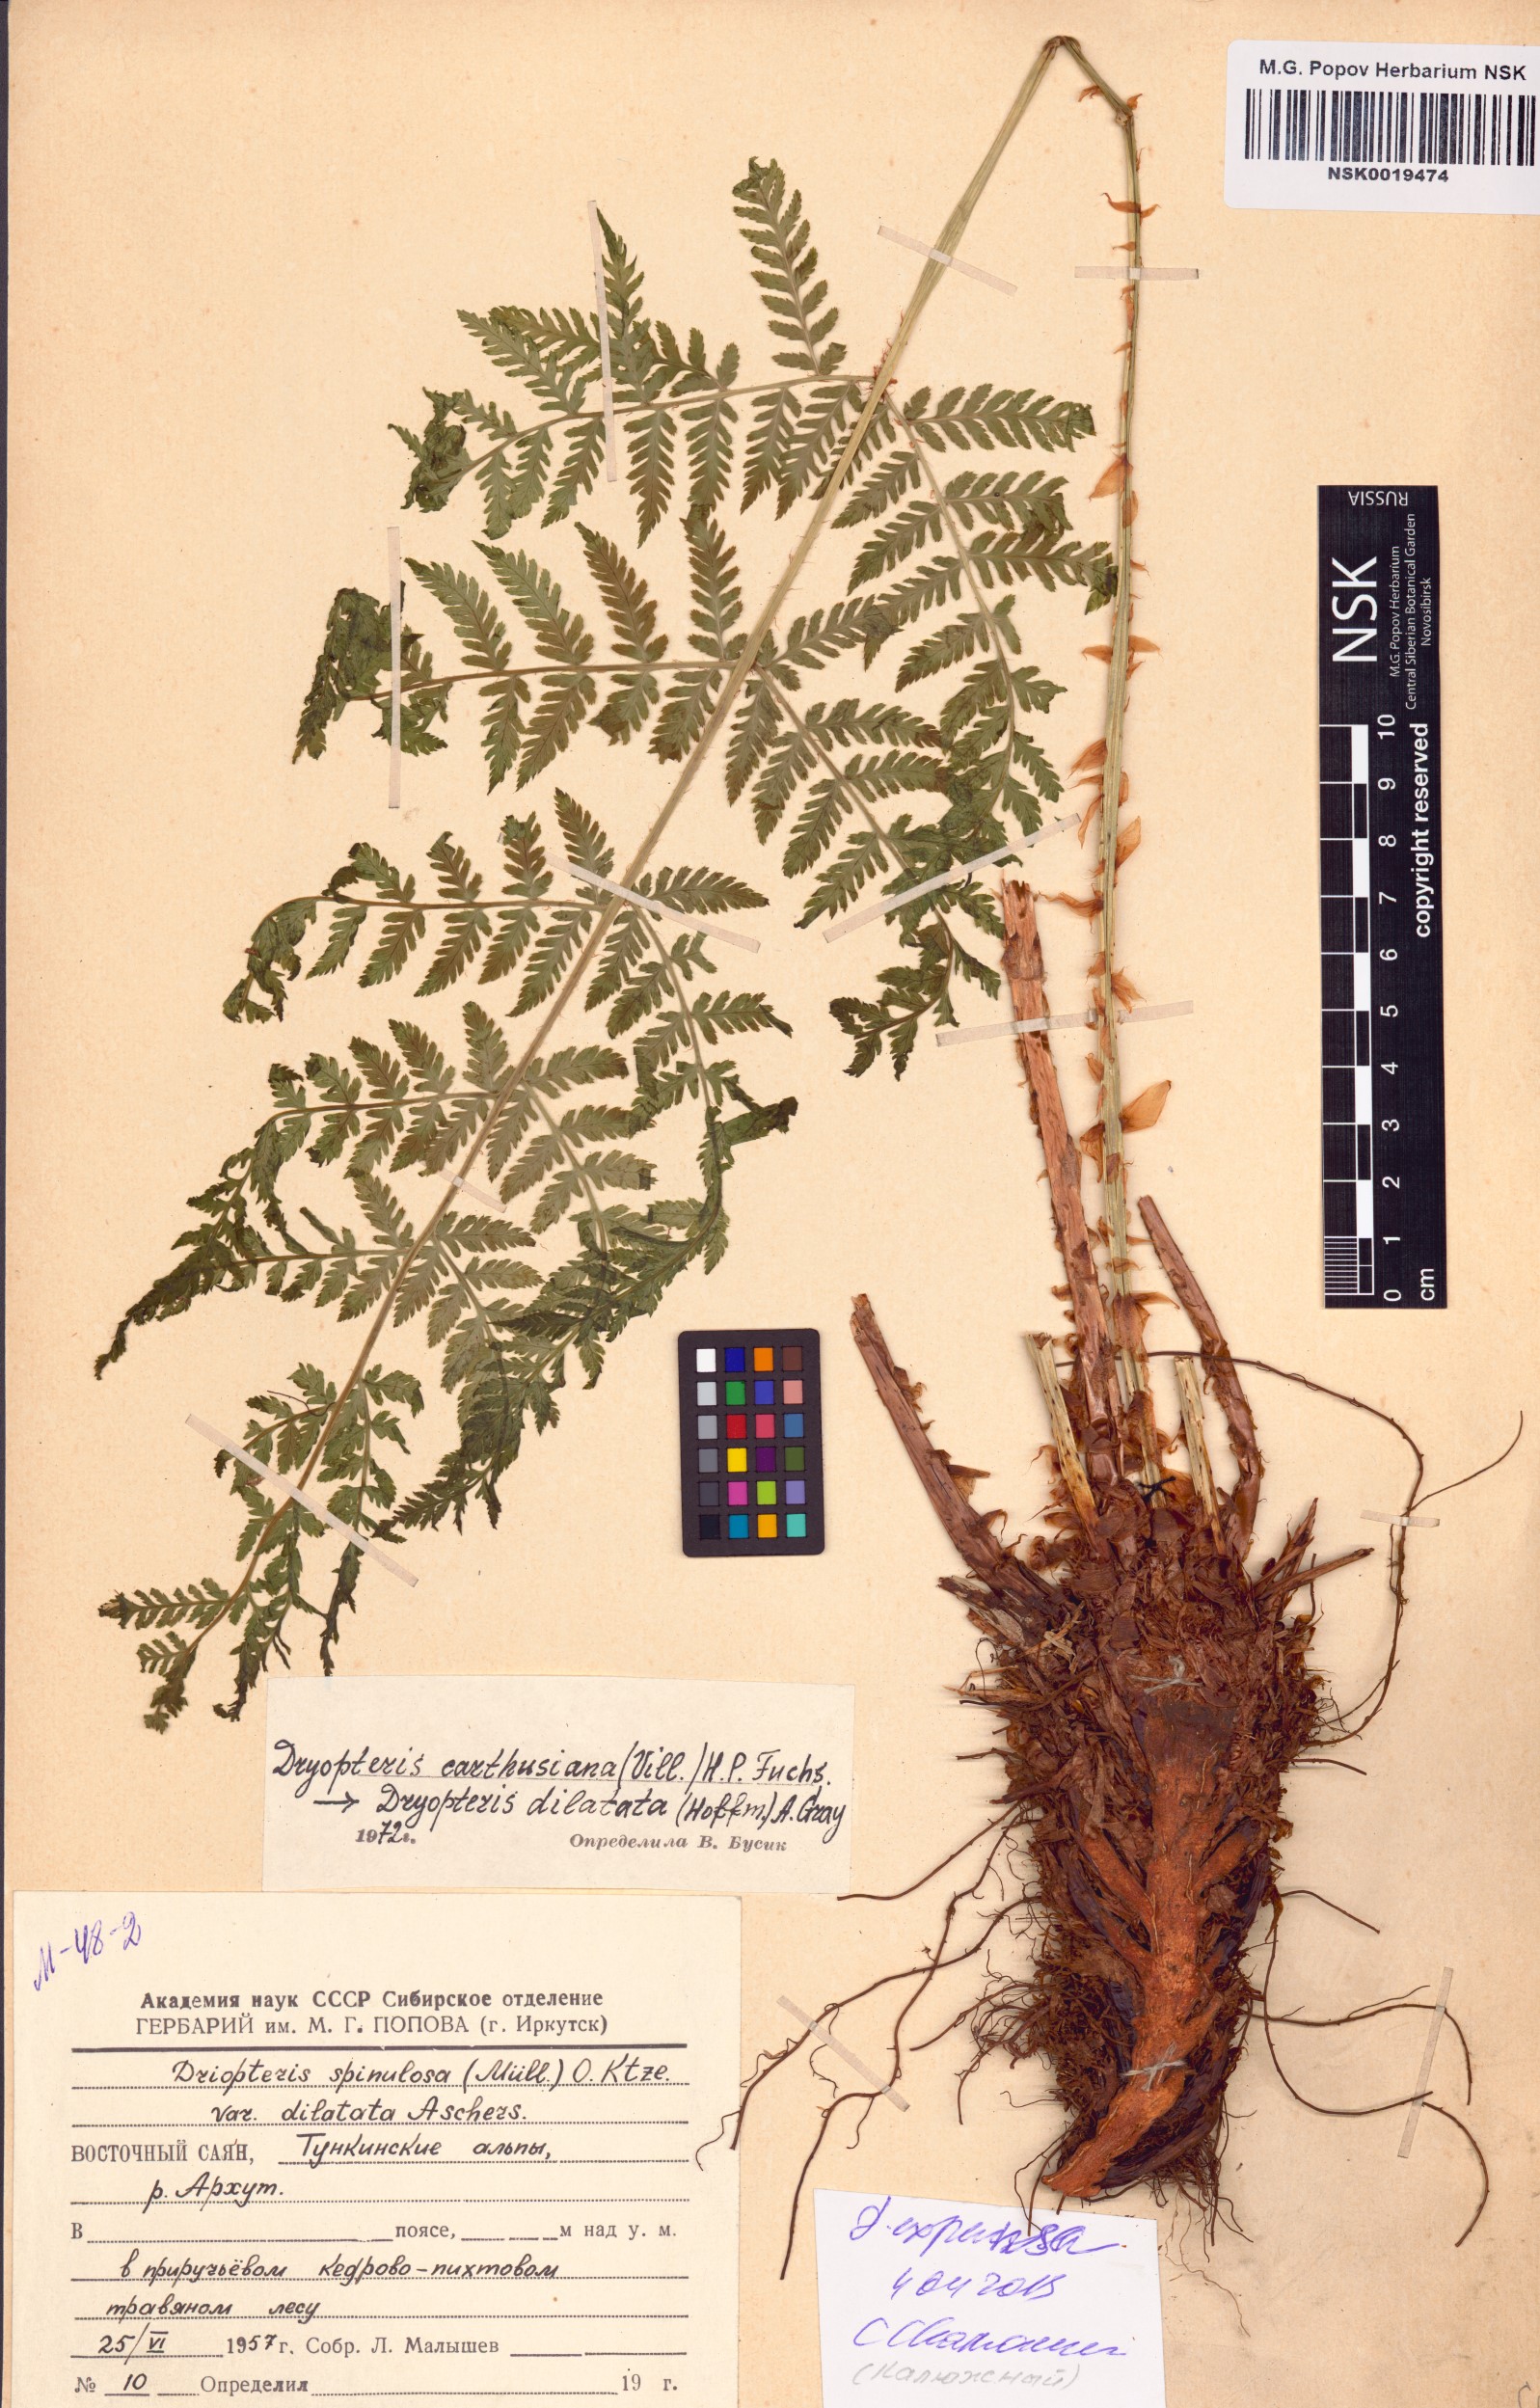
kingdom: Plantae
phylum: Tracheophyta
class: Polypodiopsida
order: Polypodiales
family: Dryopteridaceae
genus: Dryopteris
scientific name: Dryopteris expansa
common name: Northern buckler fern
